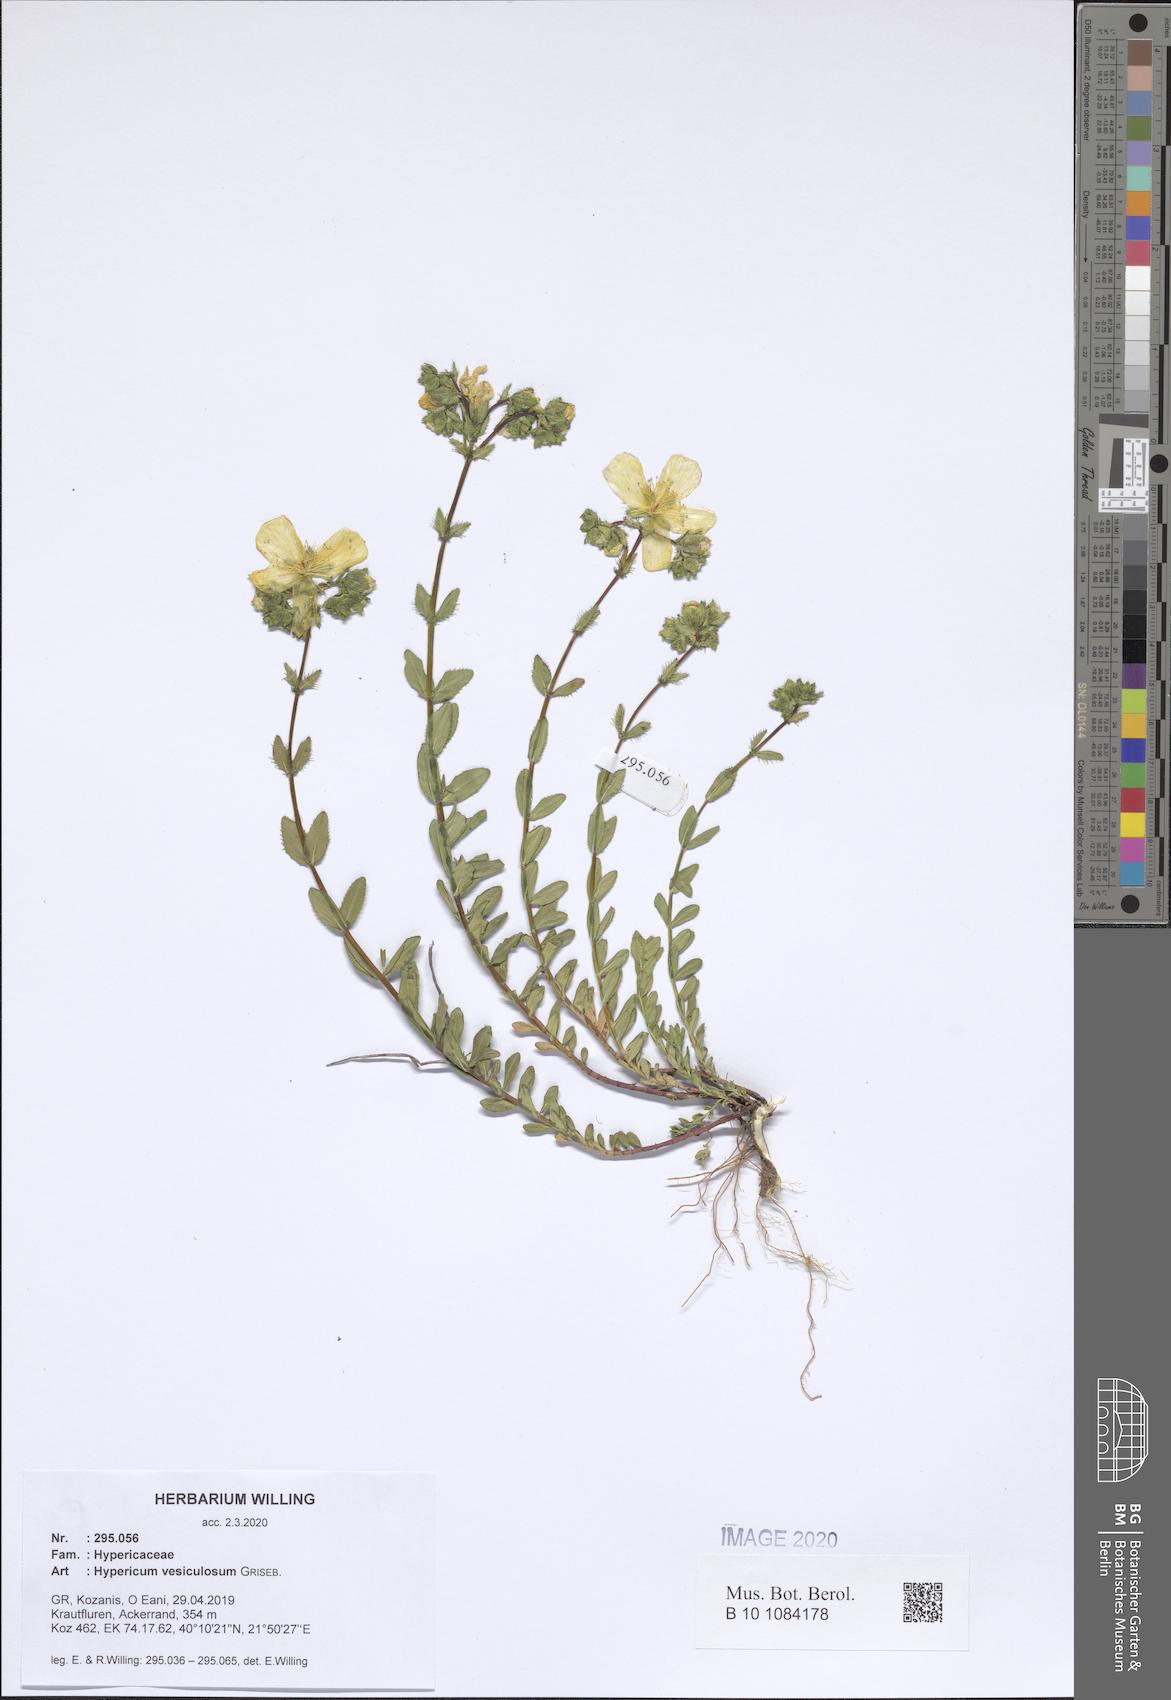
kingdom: Plantae
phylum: Tracheophyta
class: Magnoliopsida
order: Malpighiales
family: Hypericaceae
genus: Hypericum
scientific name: Hypericum vesiculosum
